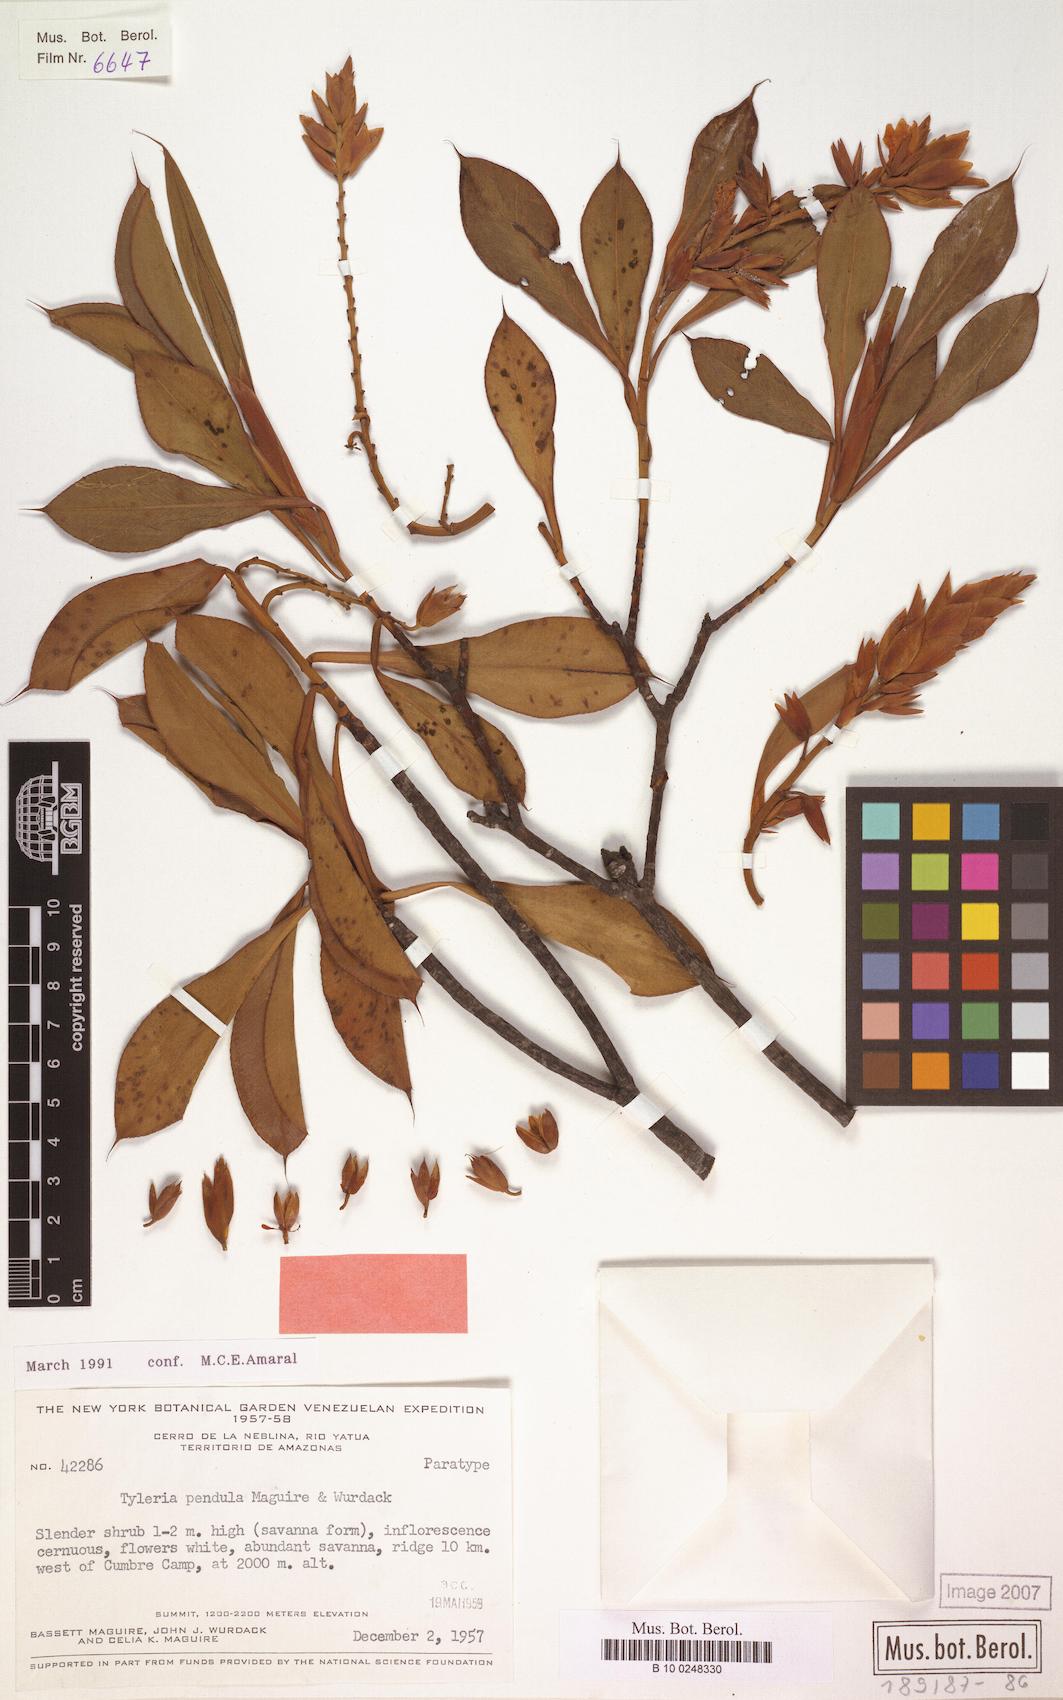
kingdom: Plantae
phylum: Tracheophyta
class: Magnoliopsida
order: Malpighiales
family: Ochnaceae
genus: Tyleria
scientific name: Tyleria pendula
